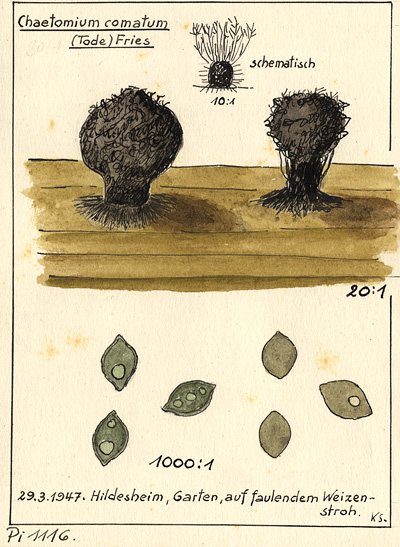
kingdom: Fungi
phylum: Ascomycota
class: Sordariomycetes
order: Sordariales
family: Chaetomiaceae
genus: Chaetomium
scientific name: Chaetomium elatum
